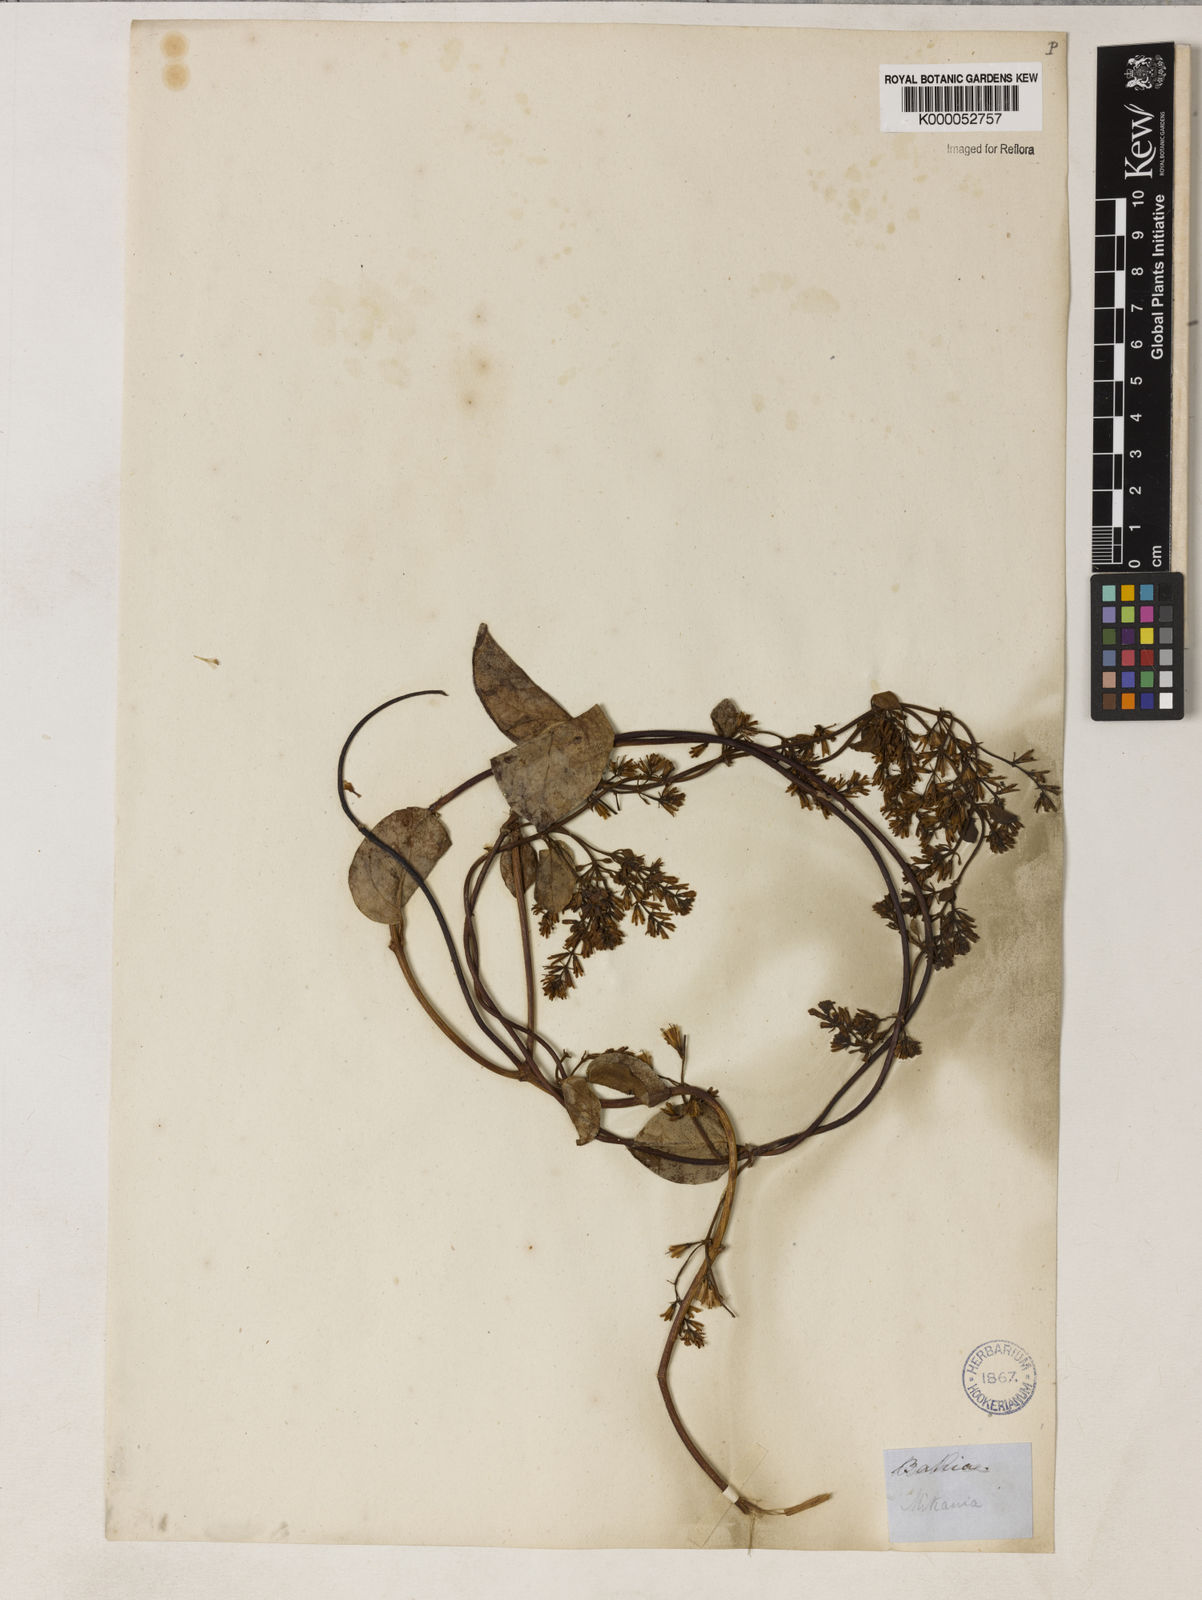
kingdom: Plantae
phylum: Tracheophyta
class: Magnoliopsida
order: Asterales
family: Asteraceae
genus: Mikania
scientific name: Mikania salzmanniifolia
